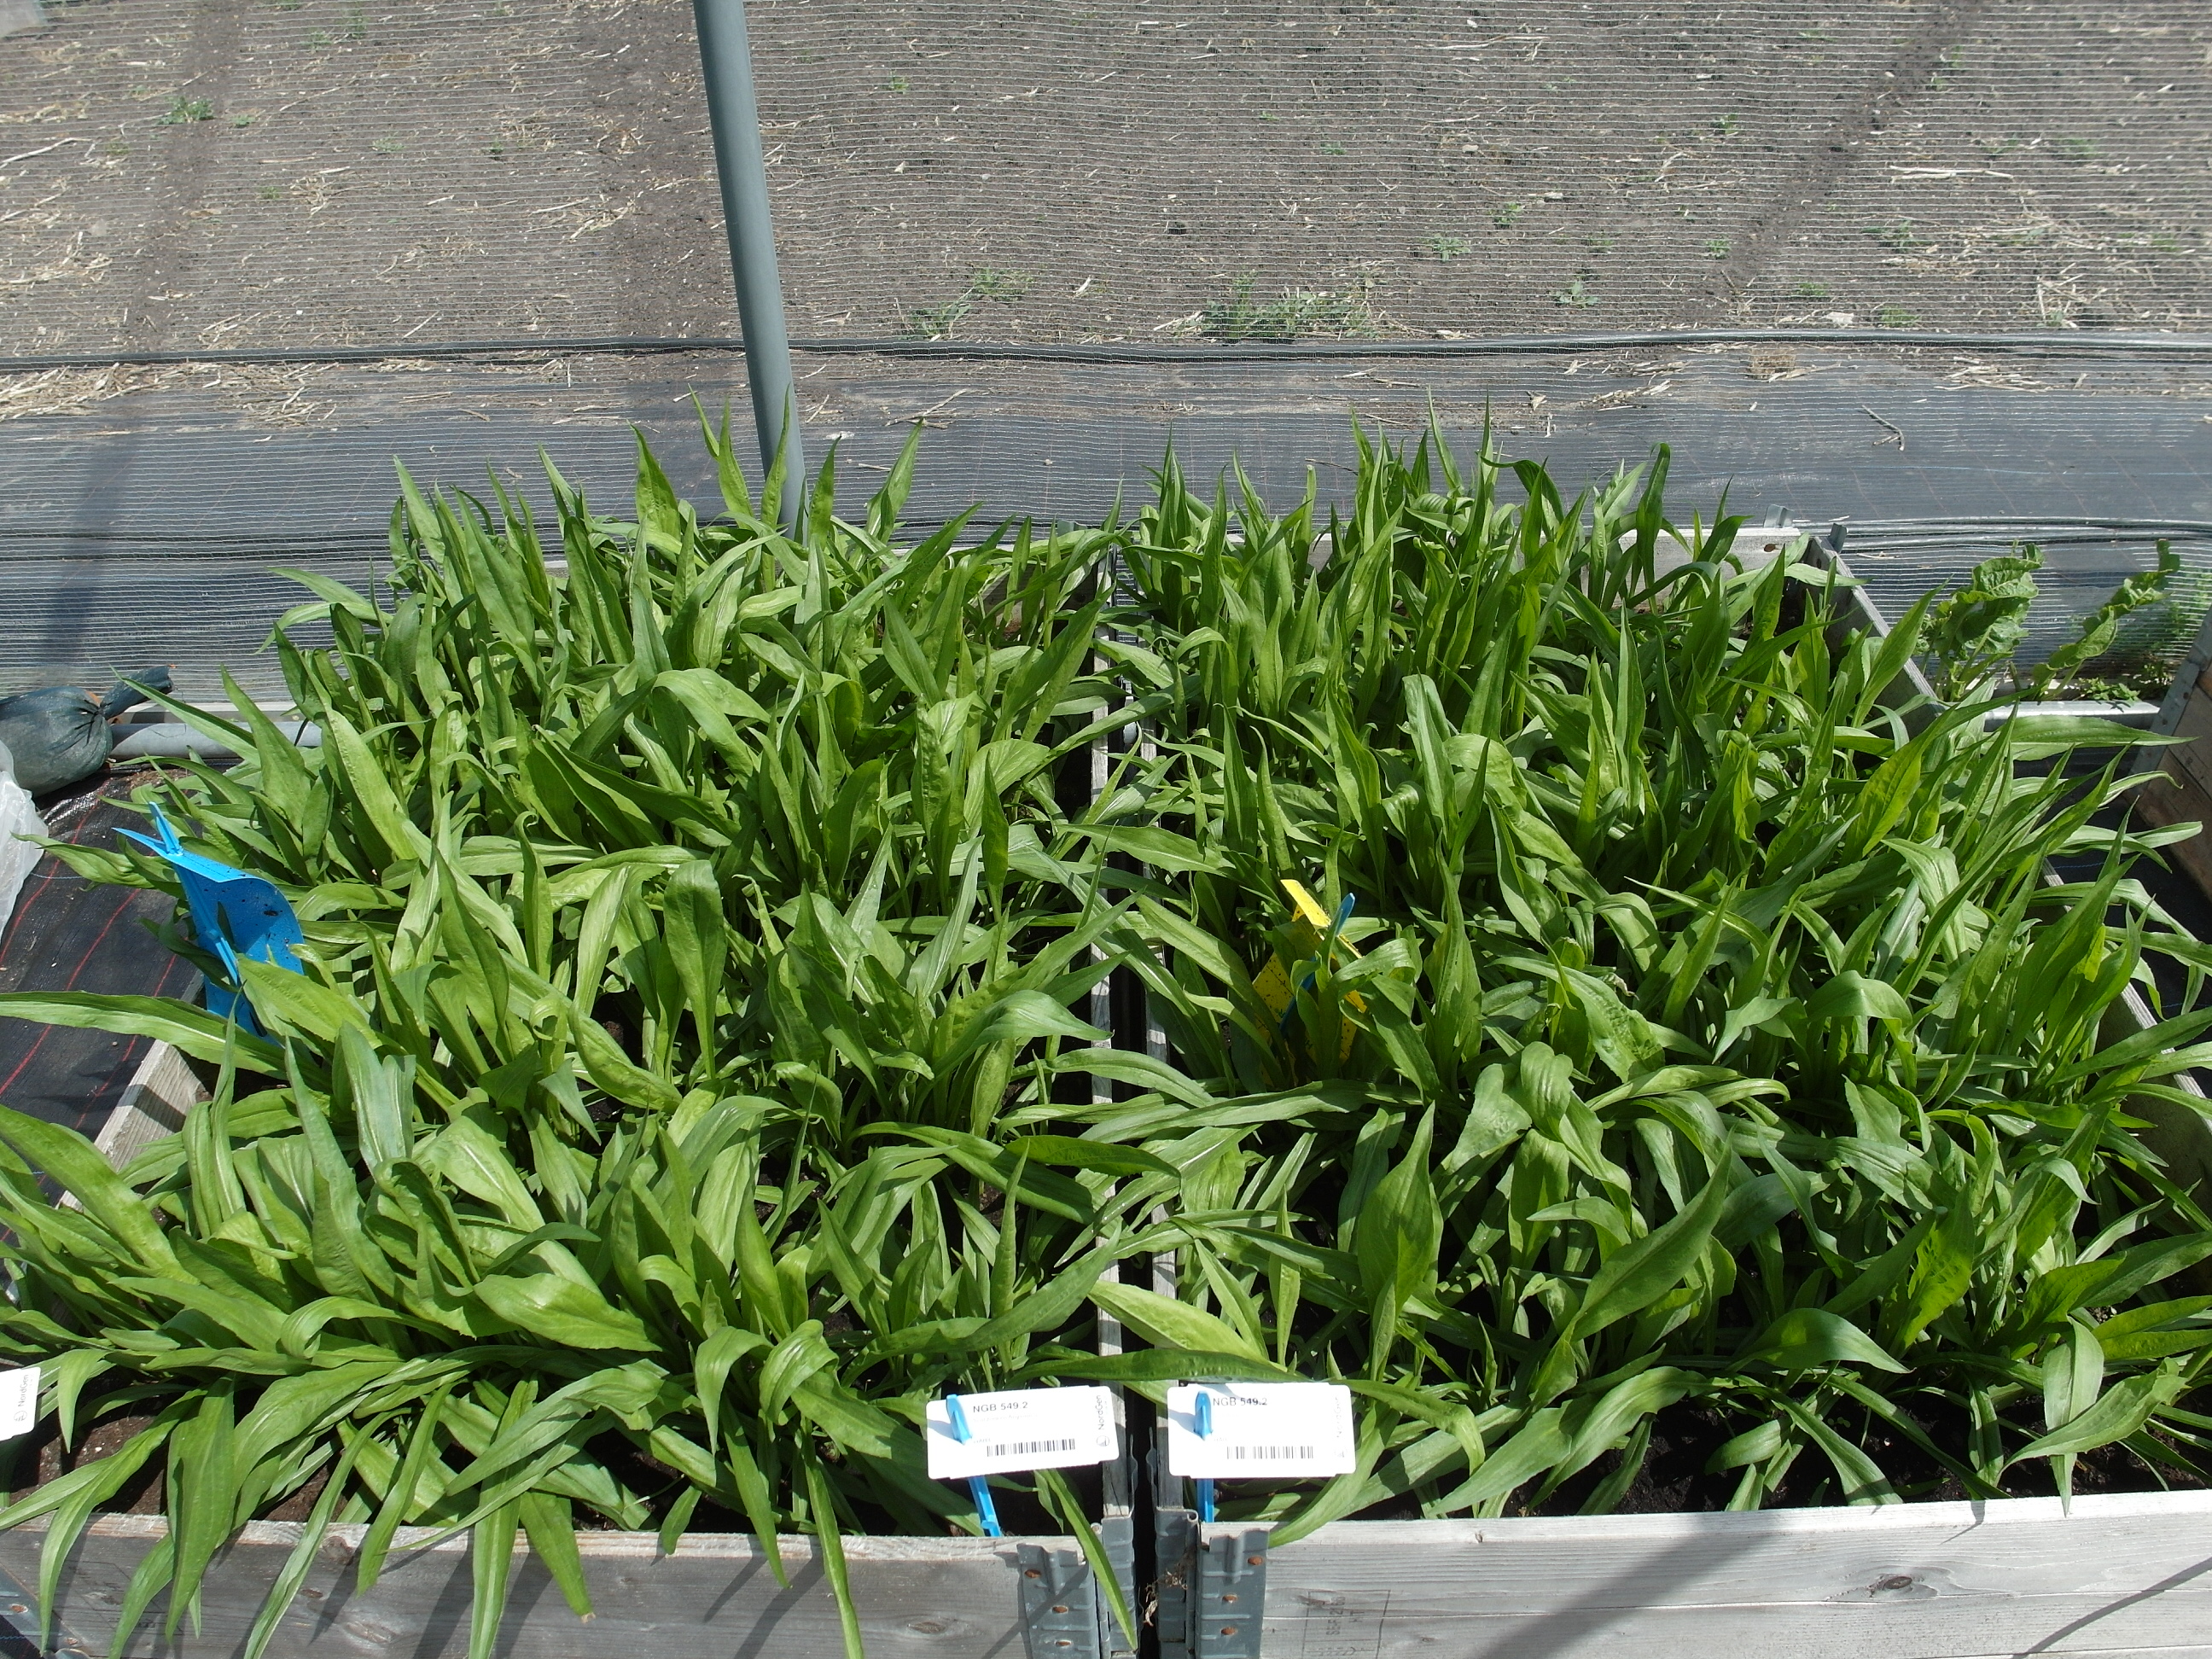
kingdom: Plantae
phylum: Tracheophyta
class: Magnoliopsida
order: Asterales
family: Asteraceae
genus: Pseudopodospermum
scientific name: Pseudopodospermum hispanicum
